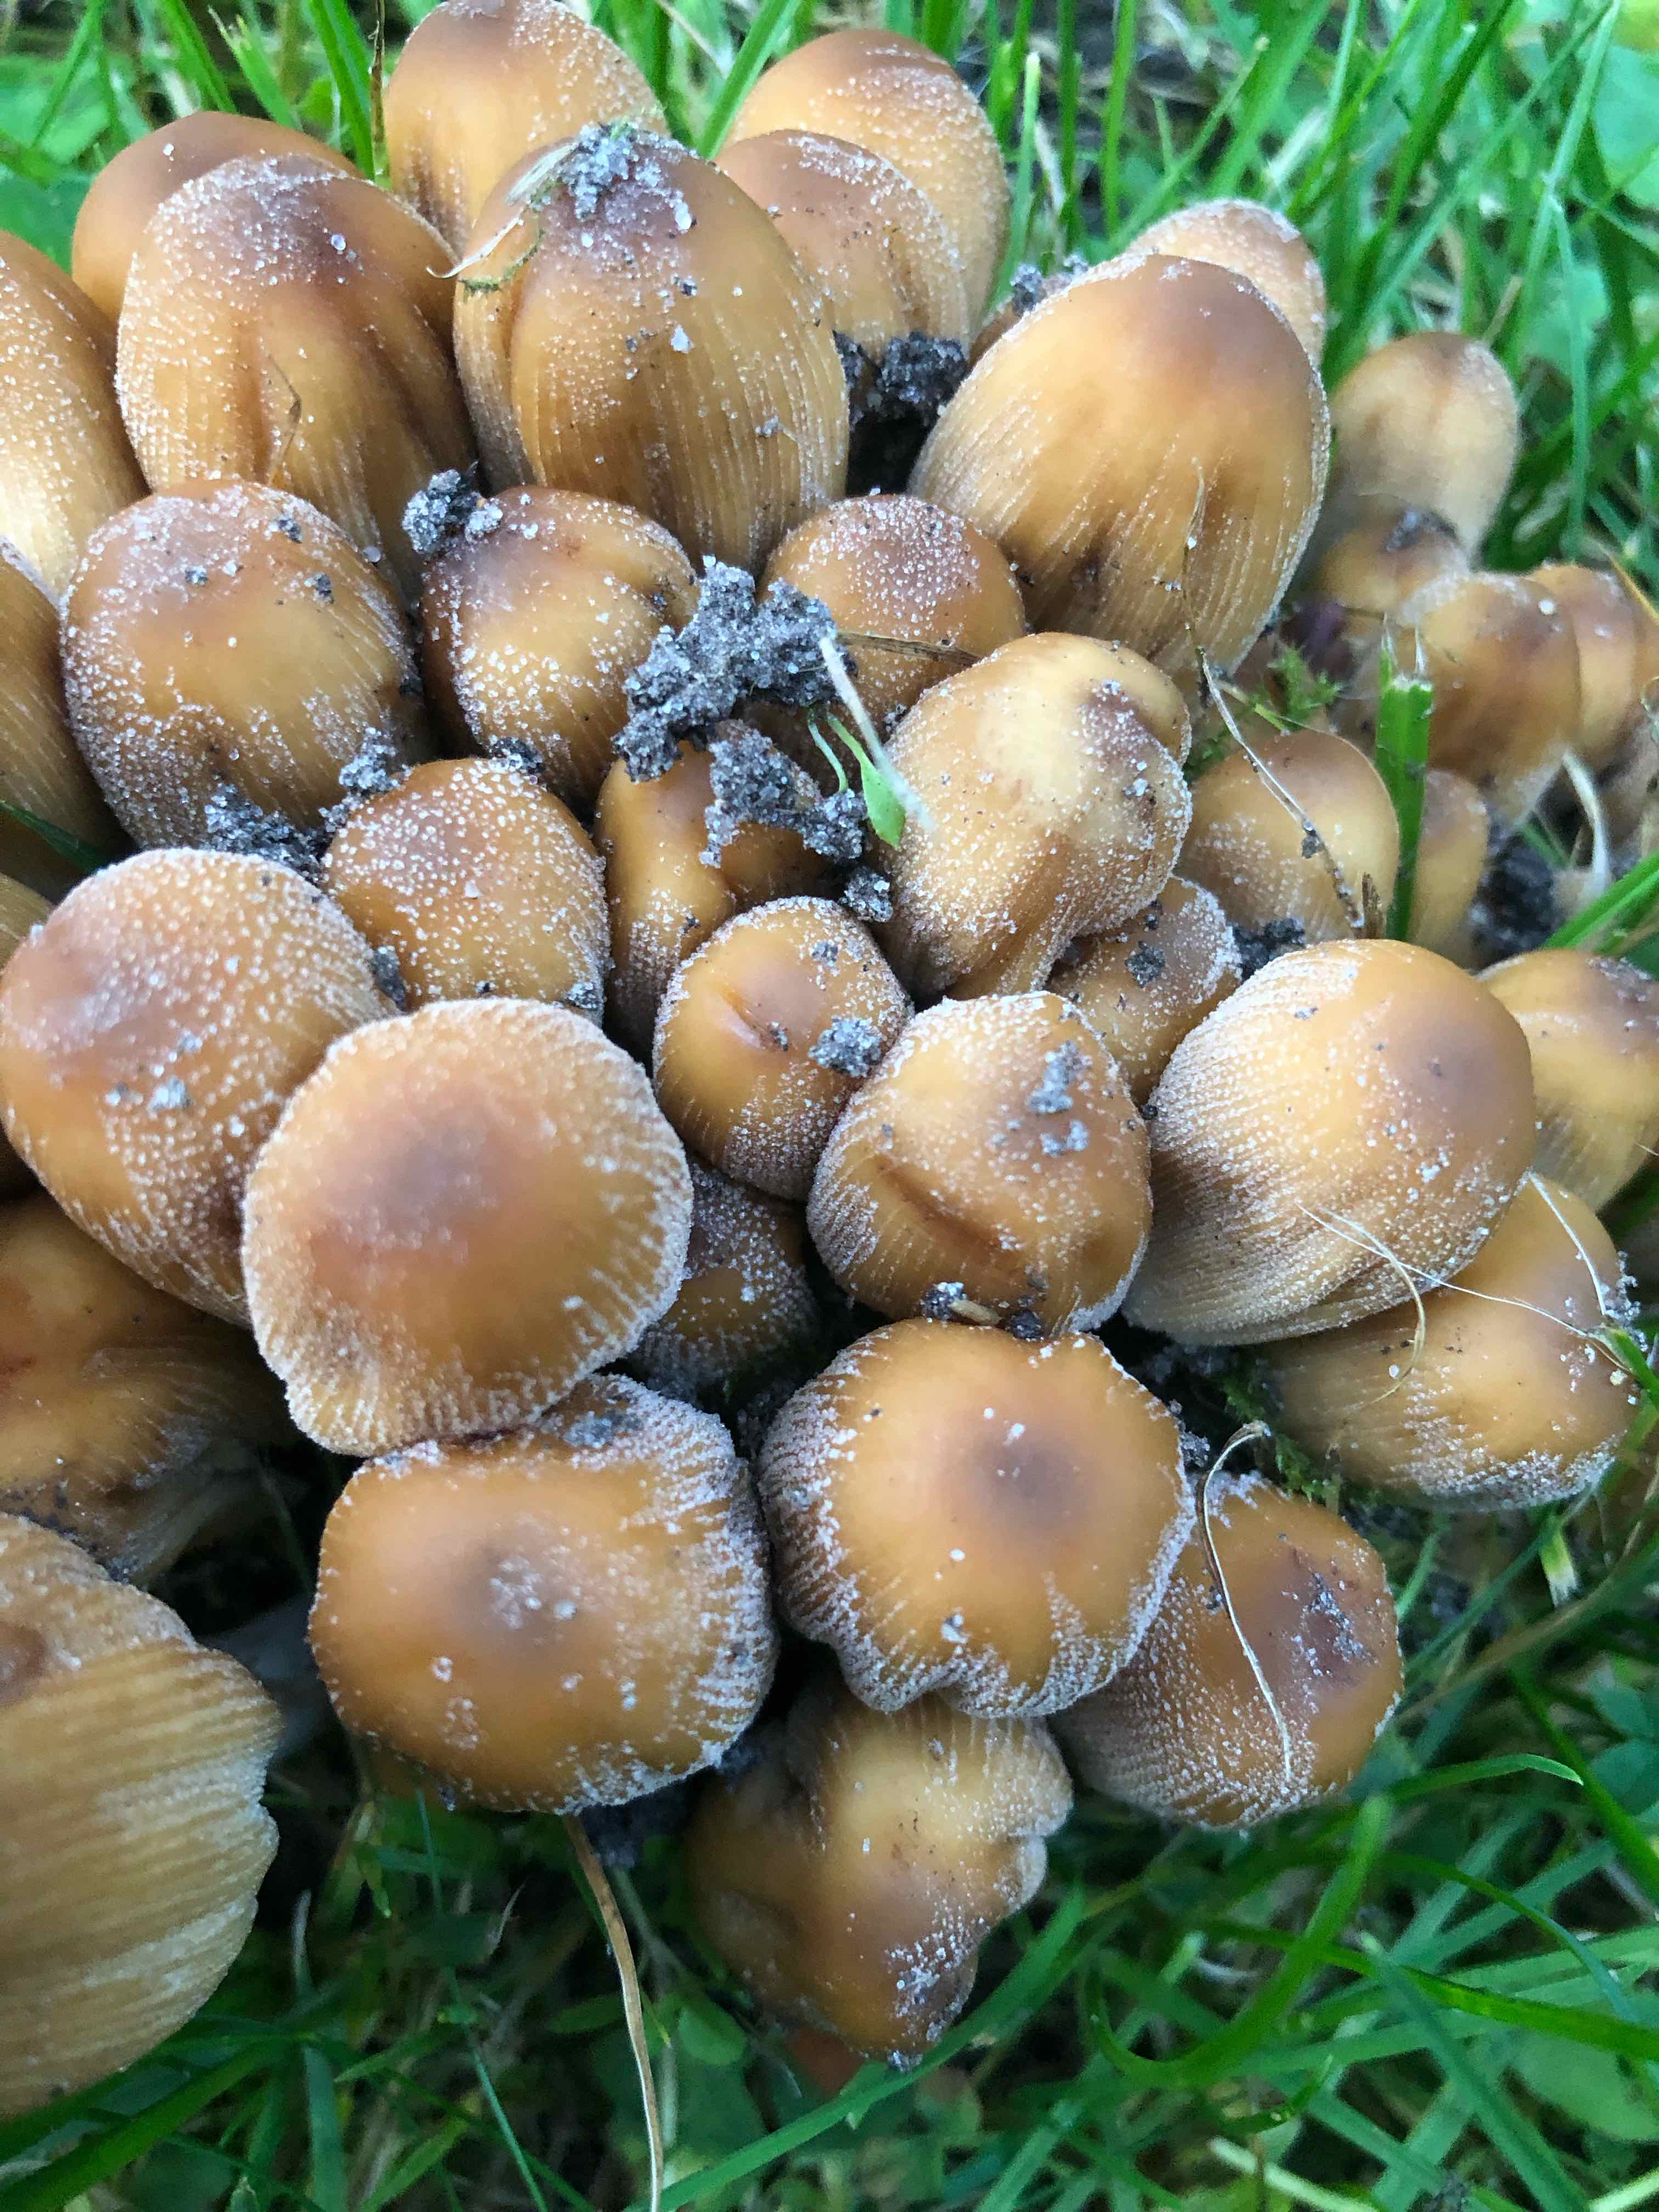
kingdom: Fungi
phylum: Basidiomycota
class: Agaricomycetes
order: Agaricales
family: Psathyrellaceae
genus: Coprinellus
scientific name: Coprinellus micaceus
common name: glimmer-blækhat
